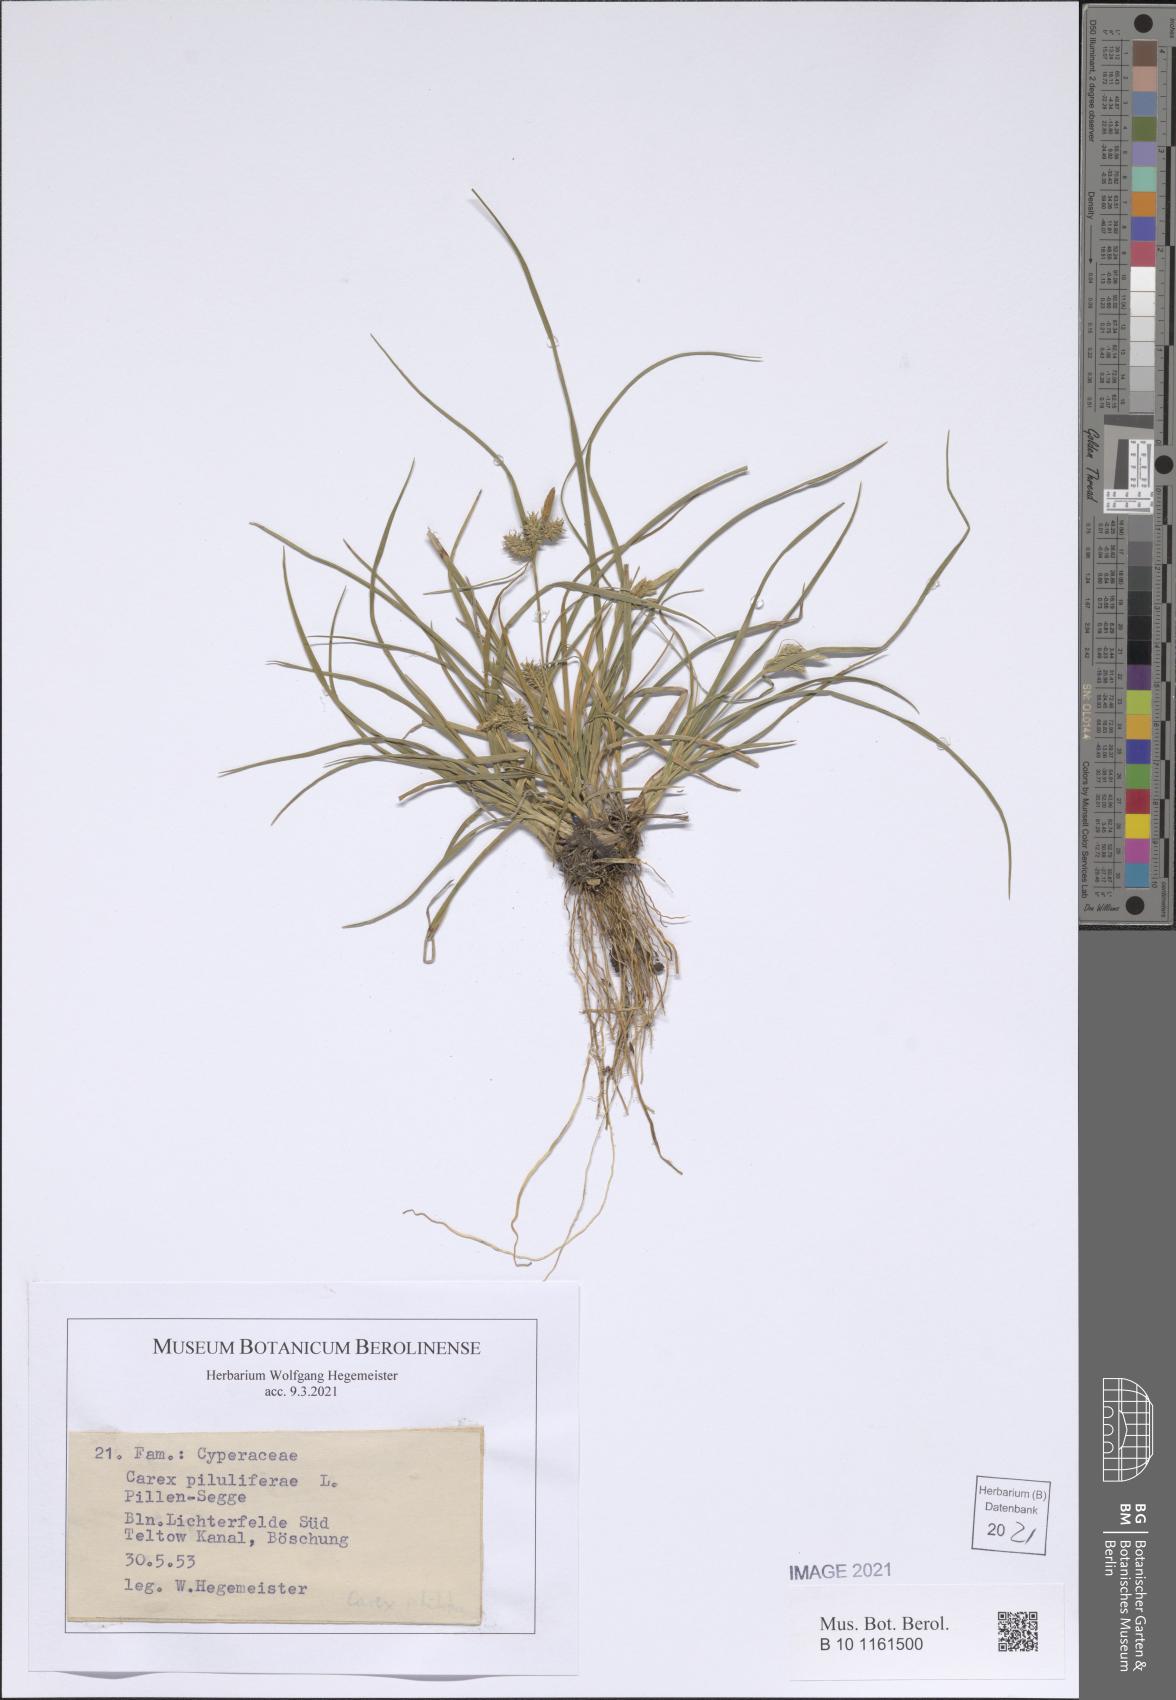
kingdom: Plantae
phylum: Tracheophyta
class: Liliopsida
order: Poales
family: Cyperaceae
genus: Carex
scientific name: Carex pilulifera
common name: Pill sedge
